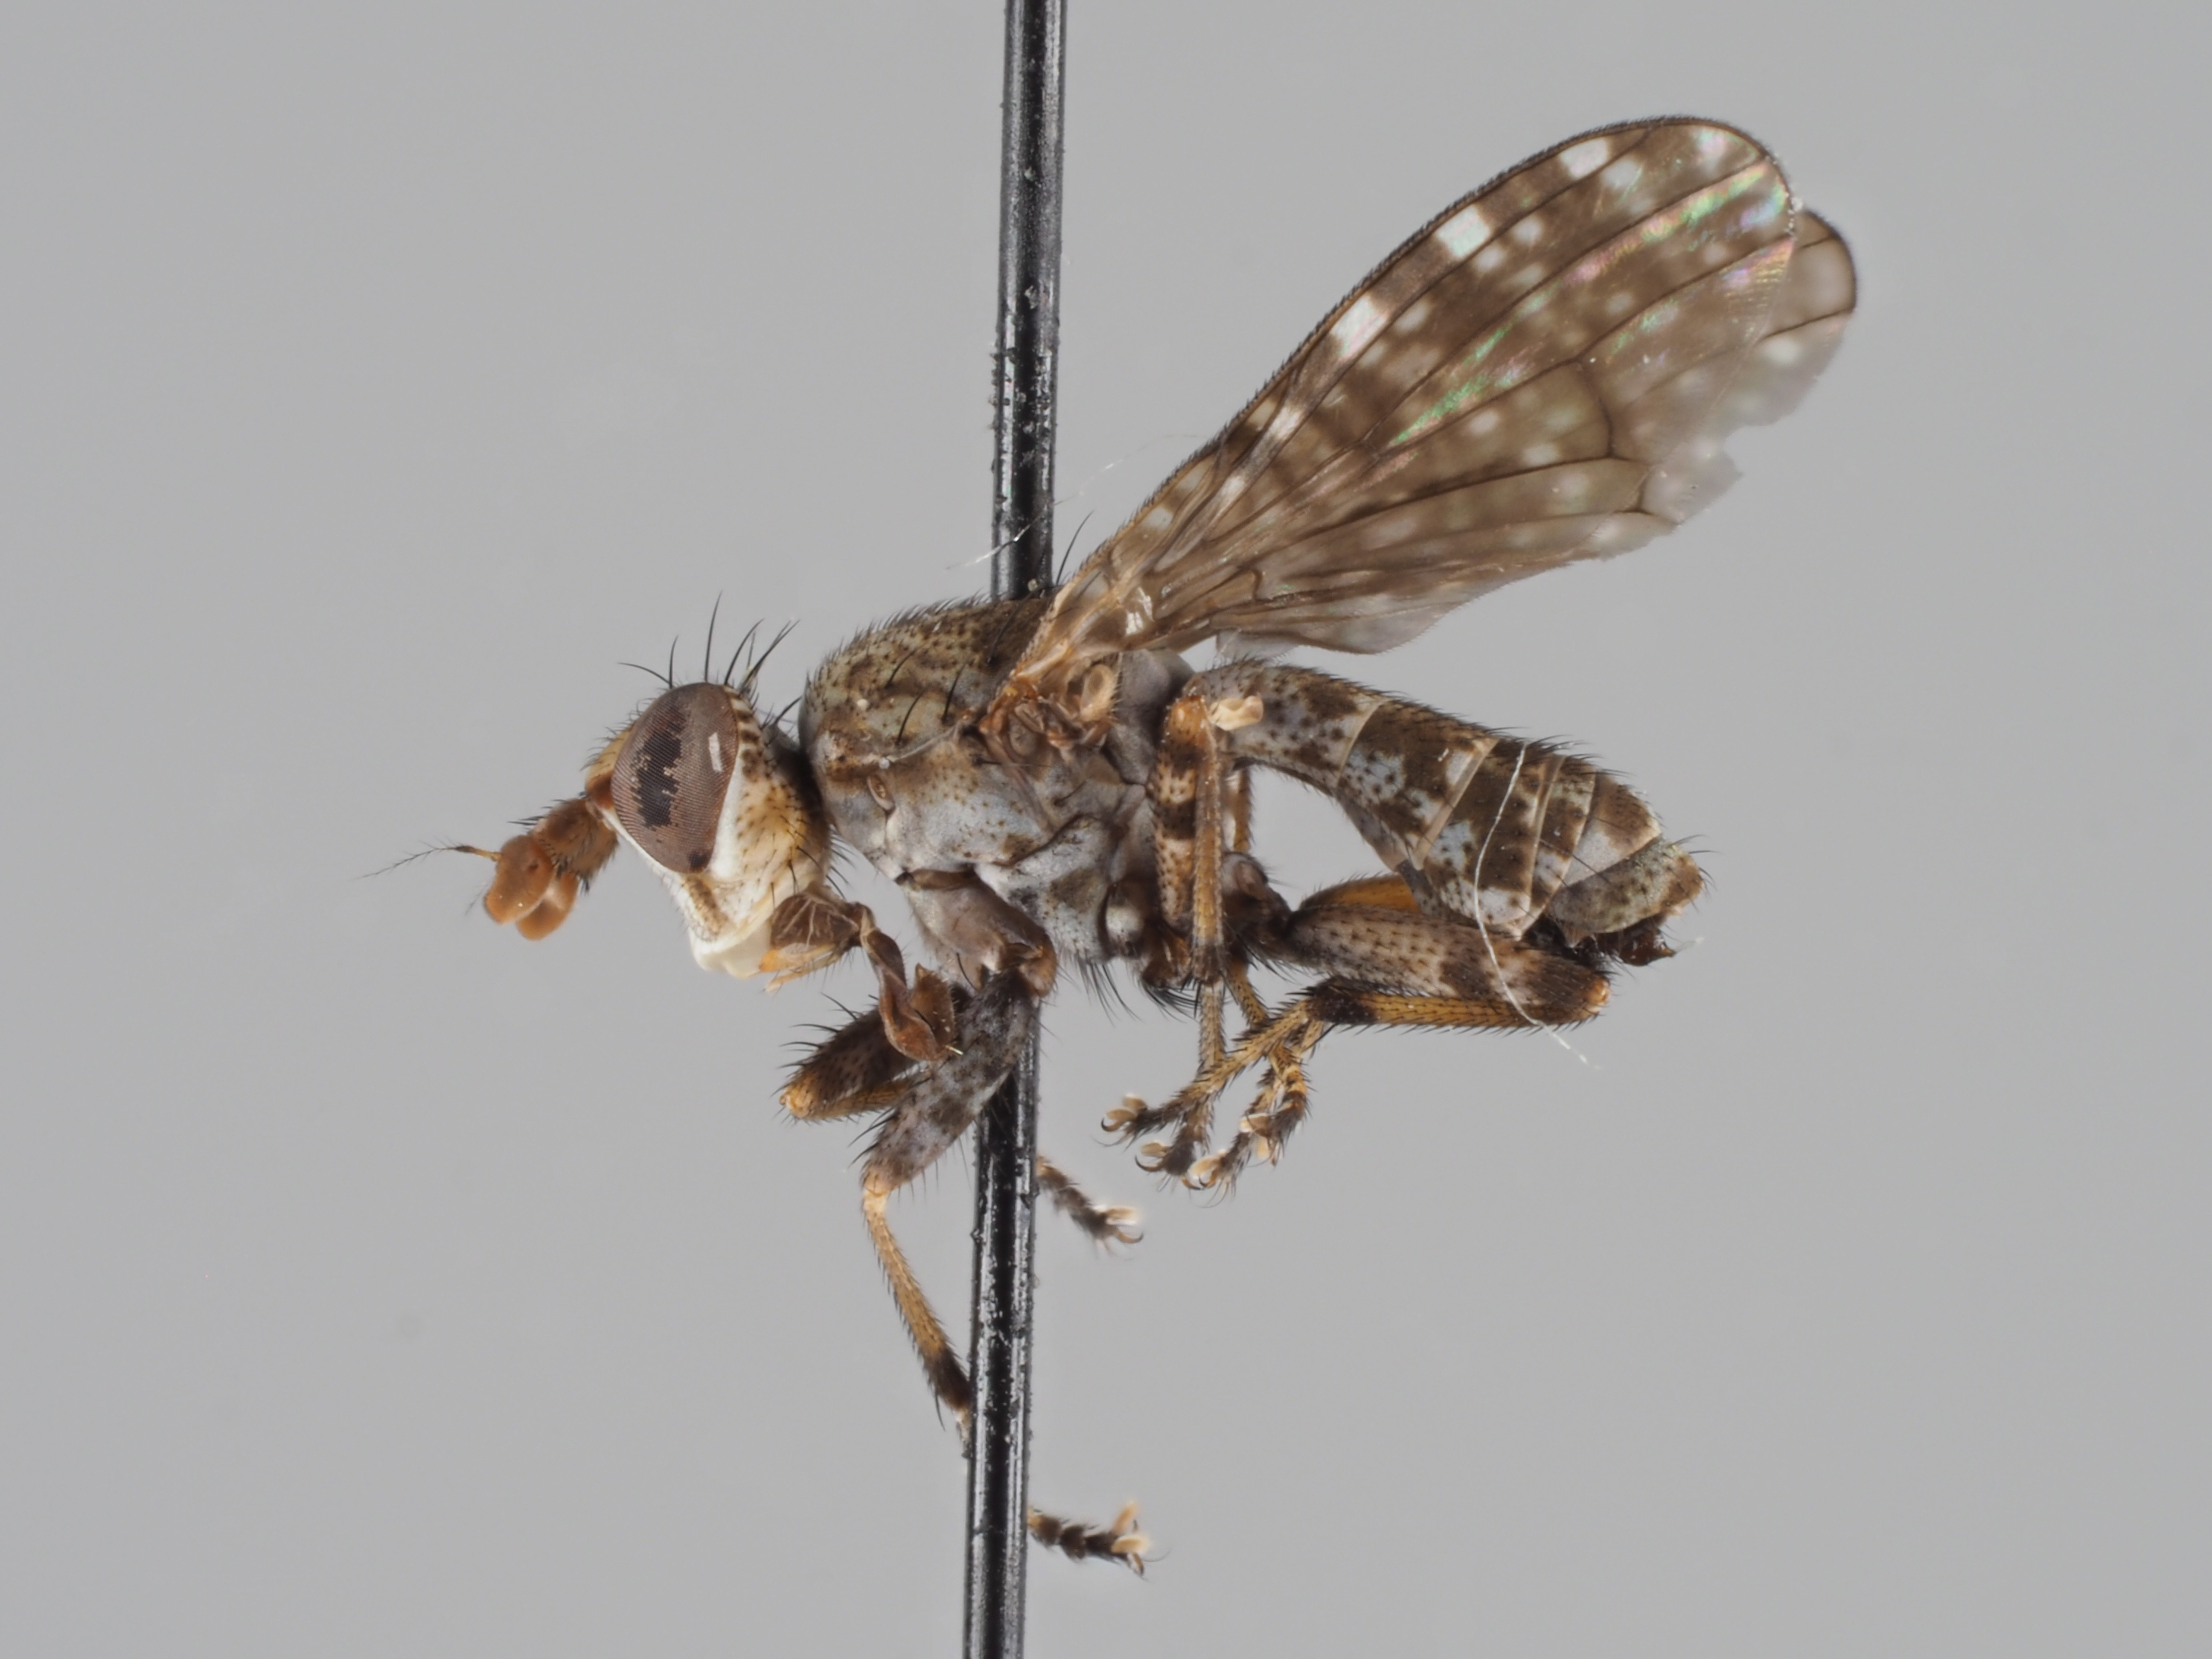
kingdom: Animalia
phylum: Arthropoda
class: Insecta
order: Diptera
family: Sciomyzidae
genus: Dictya
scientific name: Dictya umbrarum
